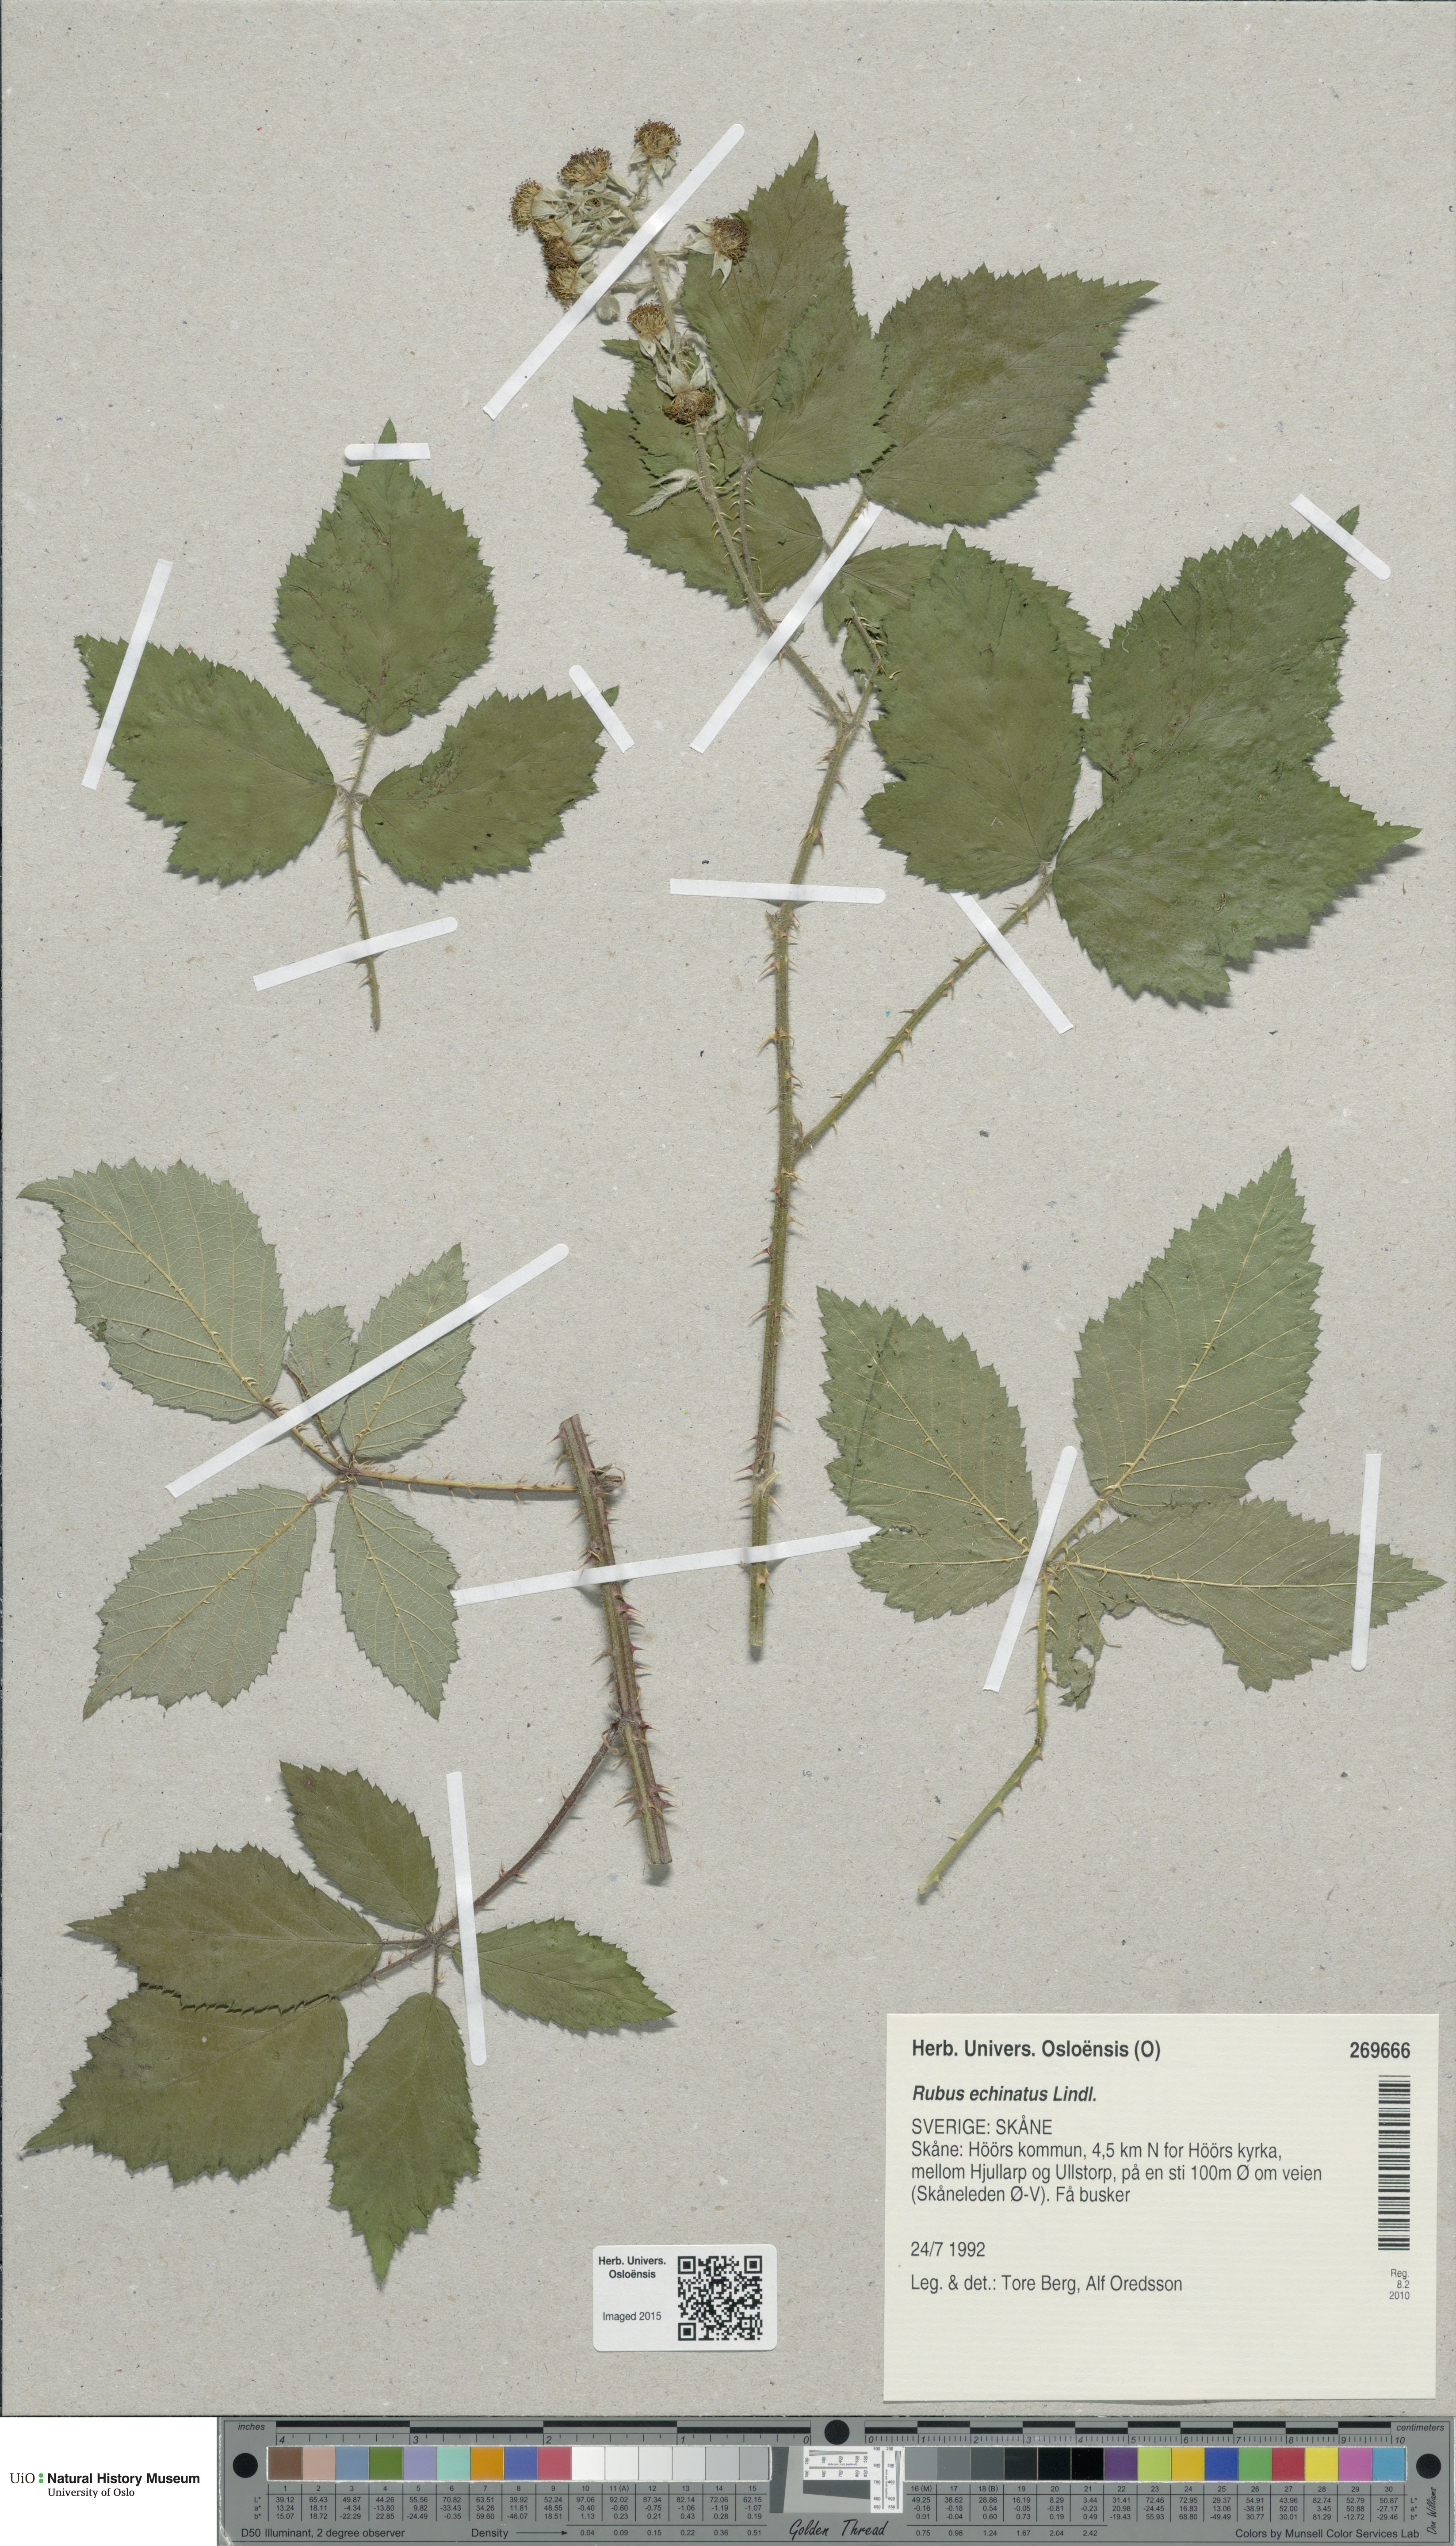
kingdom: Plantae
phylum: Tracheophyta
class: Magnoliopsida
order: Rosales
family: Rosaceae
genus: Rubus
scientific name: Rubus echinatus
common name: Echinate bramble
